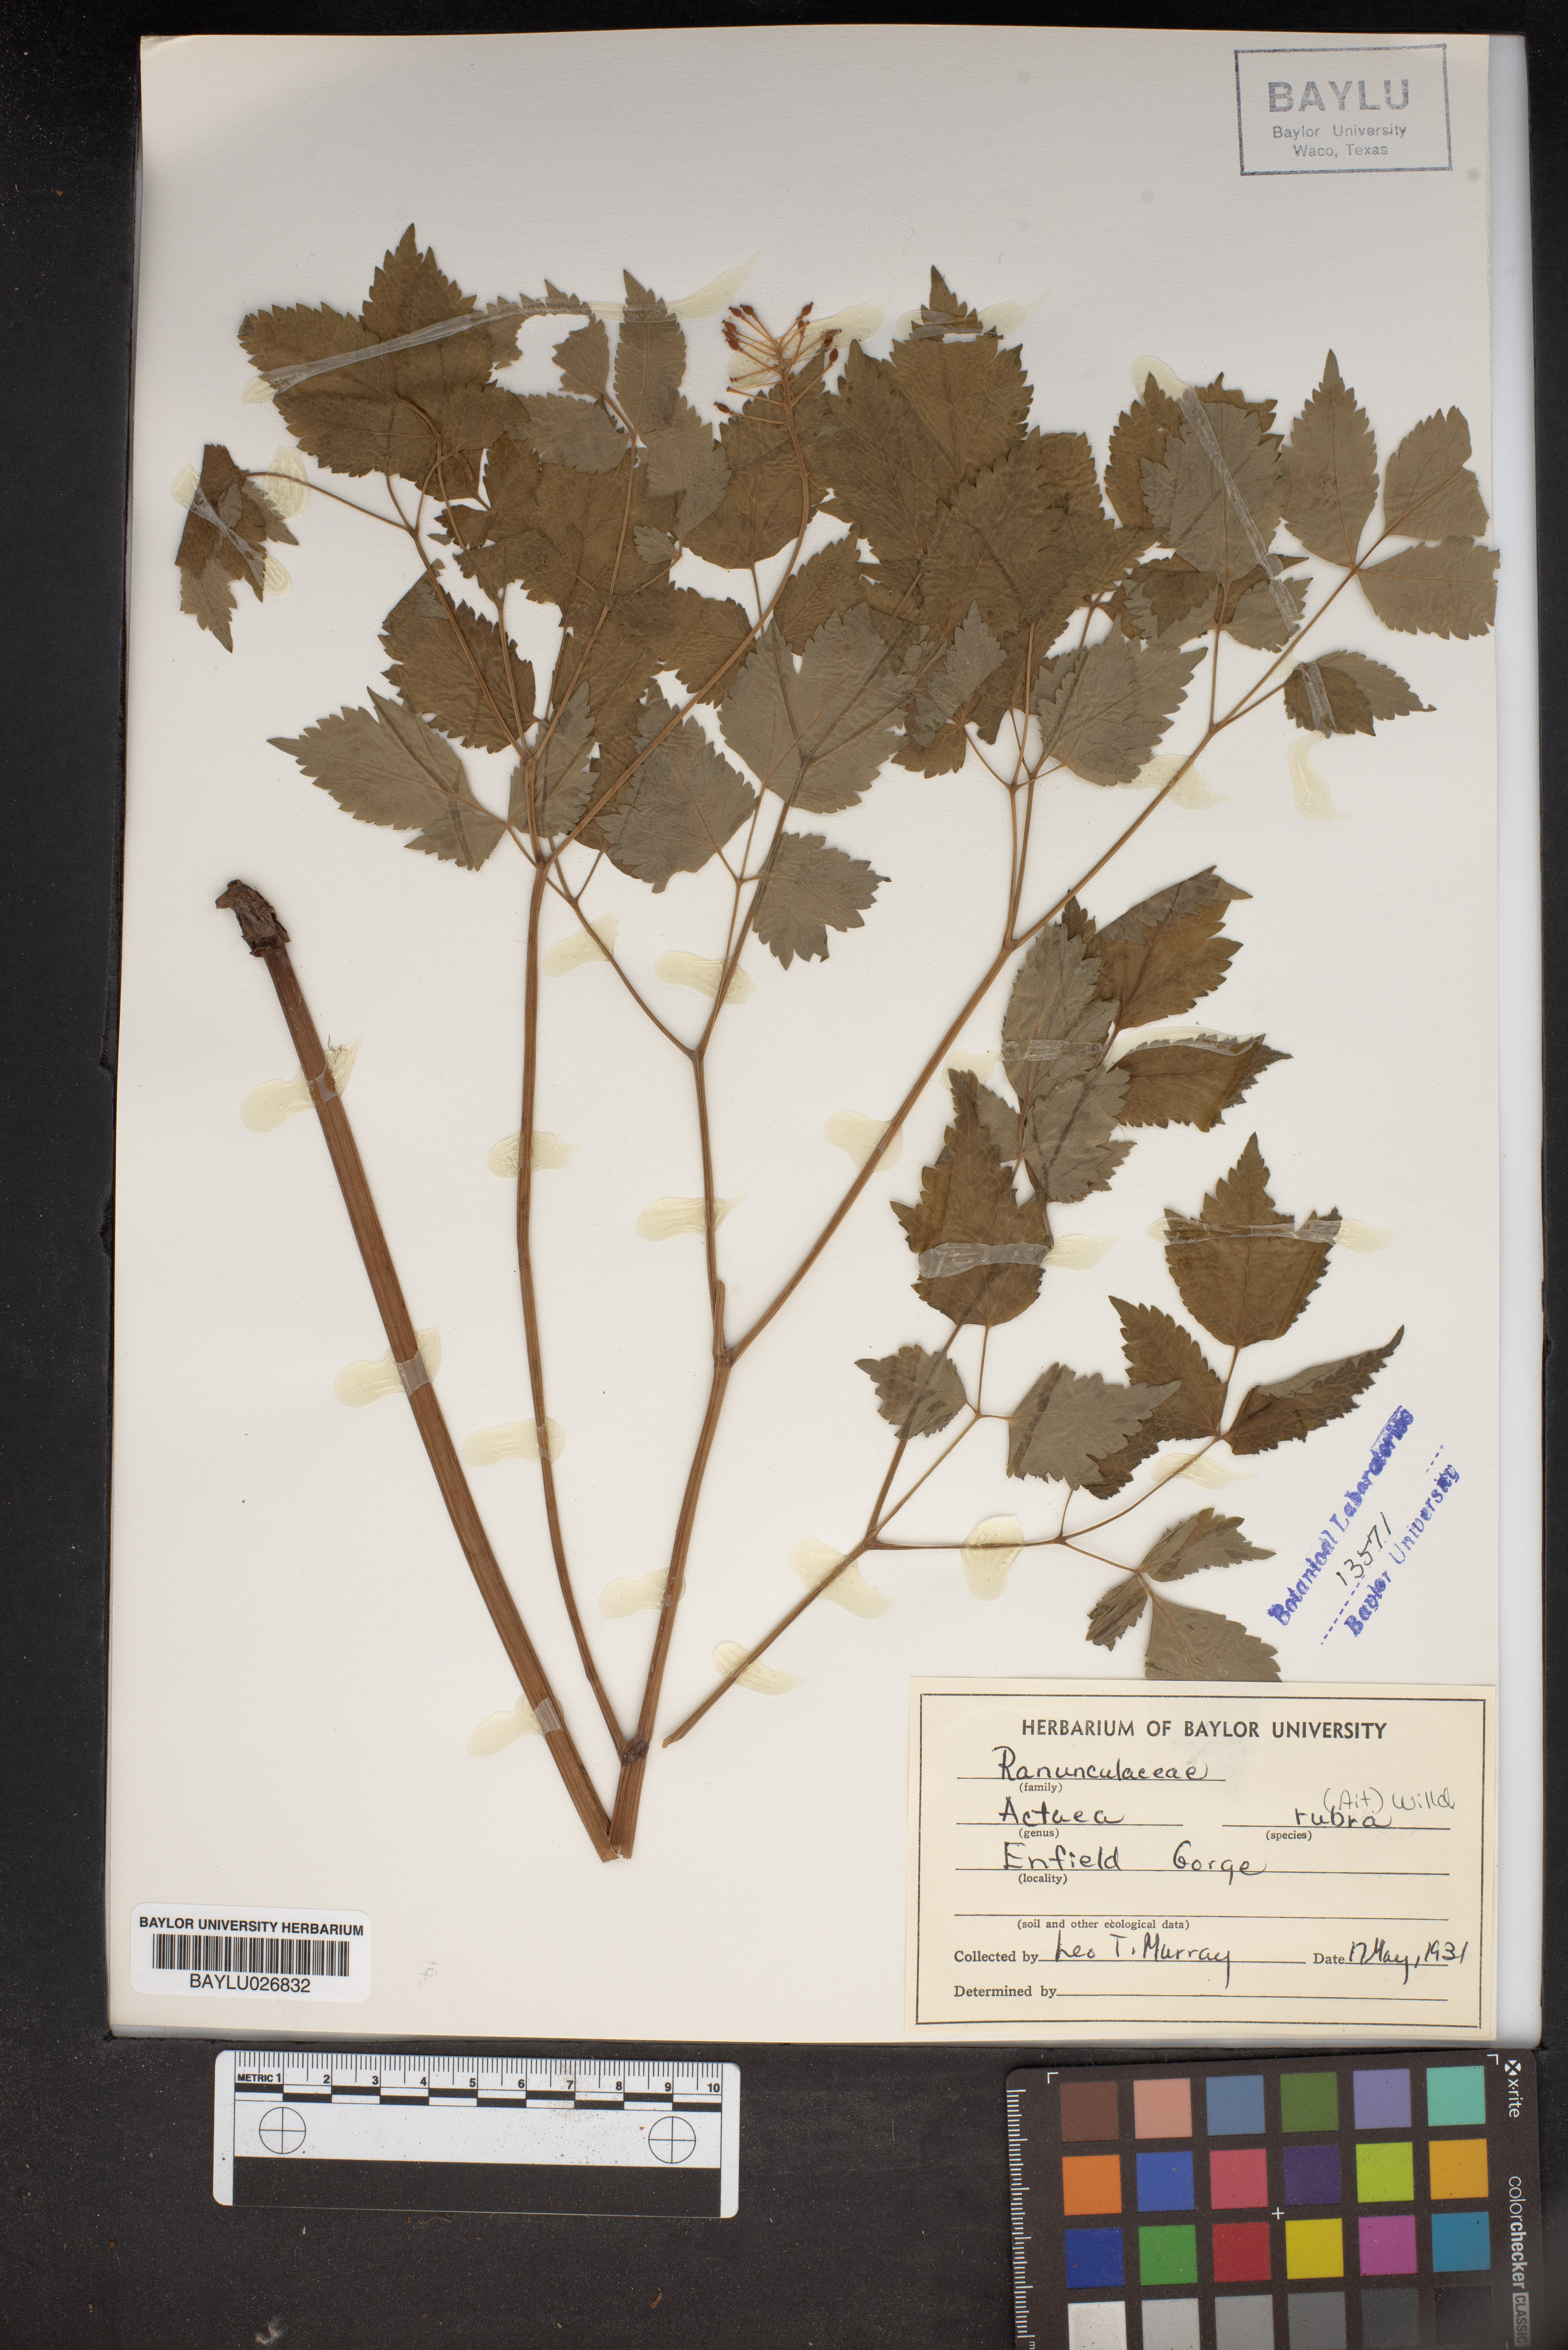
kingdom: Plantae
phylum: Tracheophyta
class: Magnoliopsida
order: Ranunculales
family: Ranunculaceae
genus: Actaea
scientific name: Actaea rubra
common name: Red baneberry
